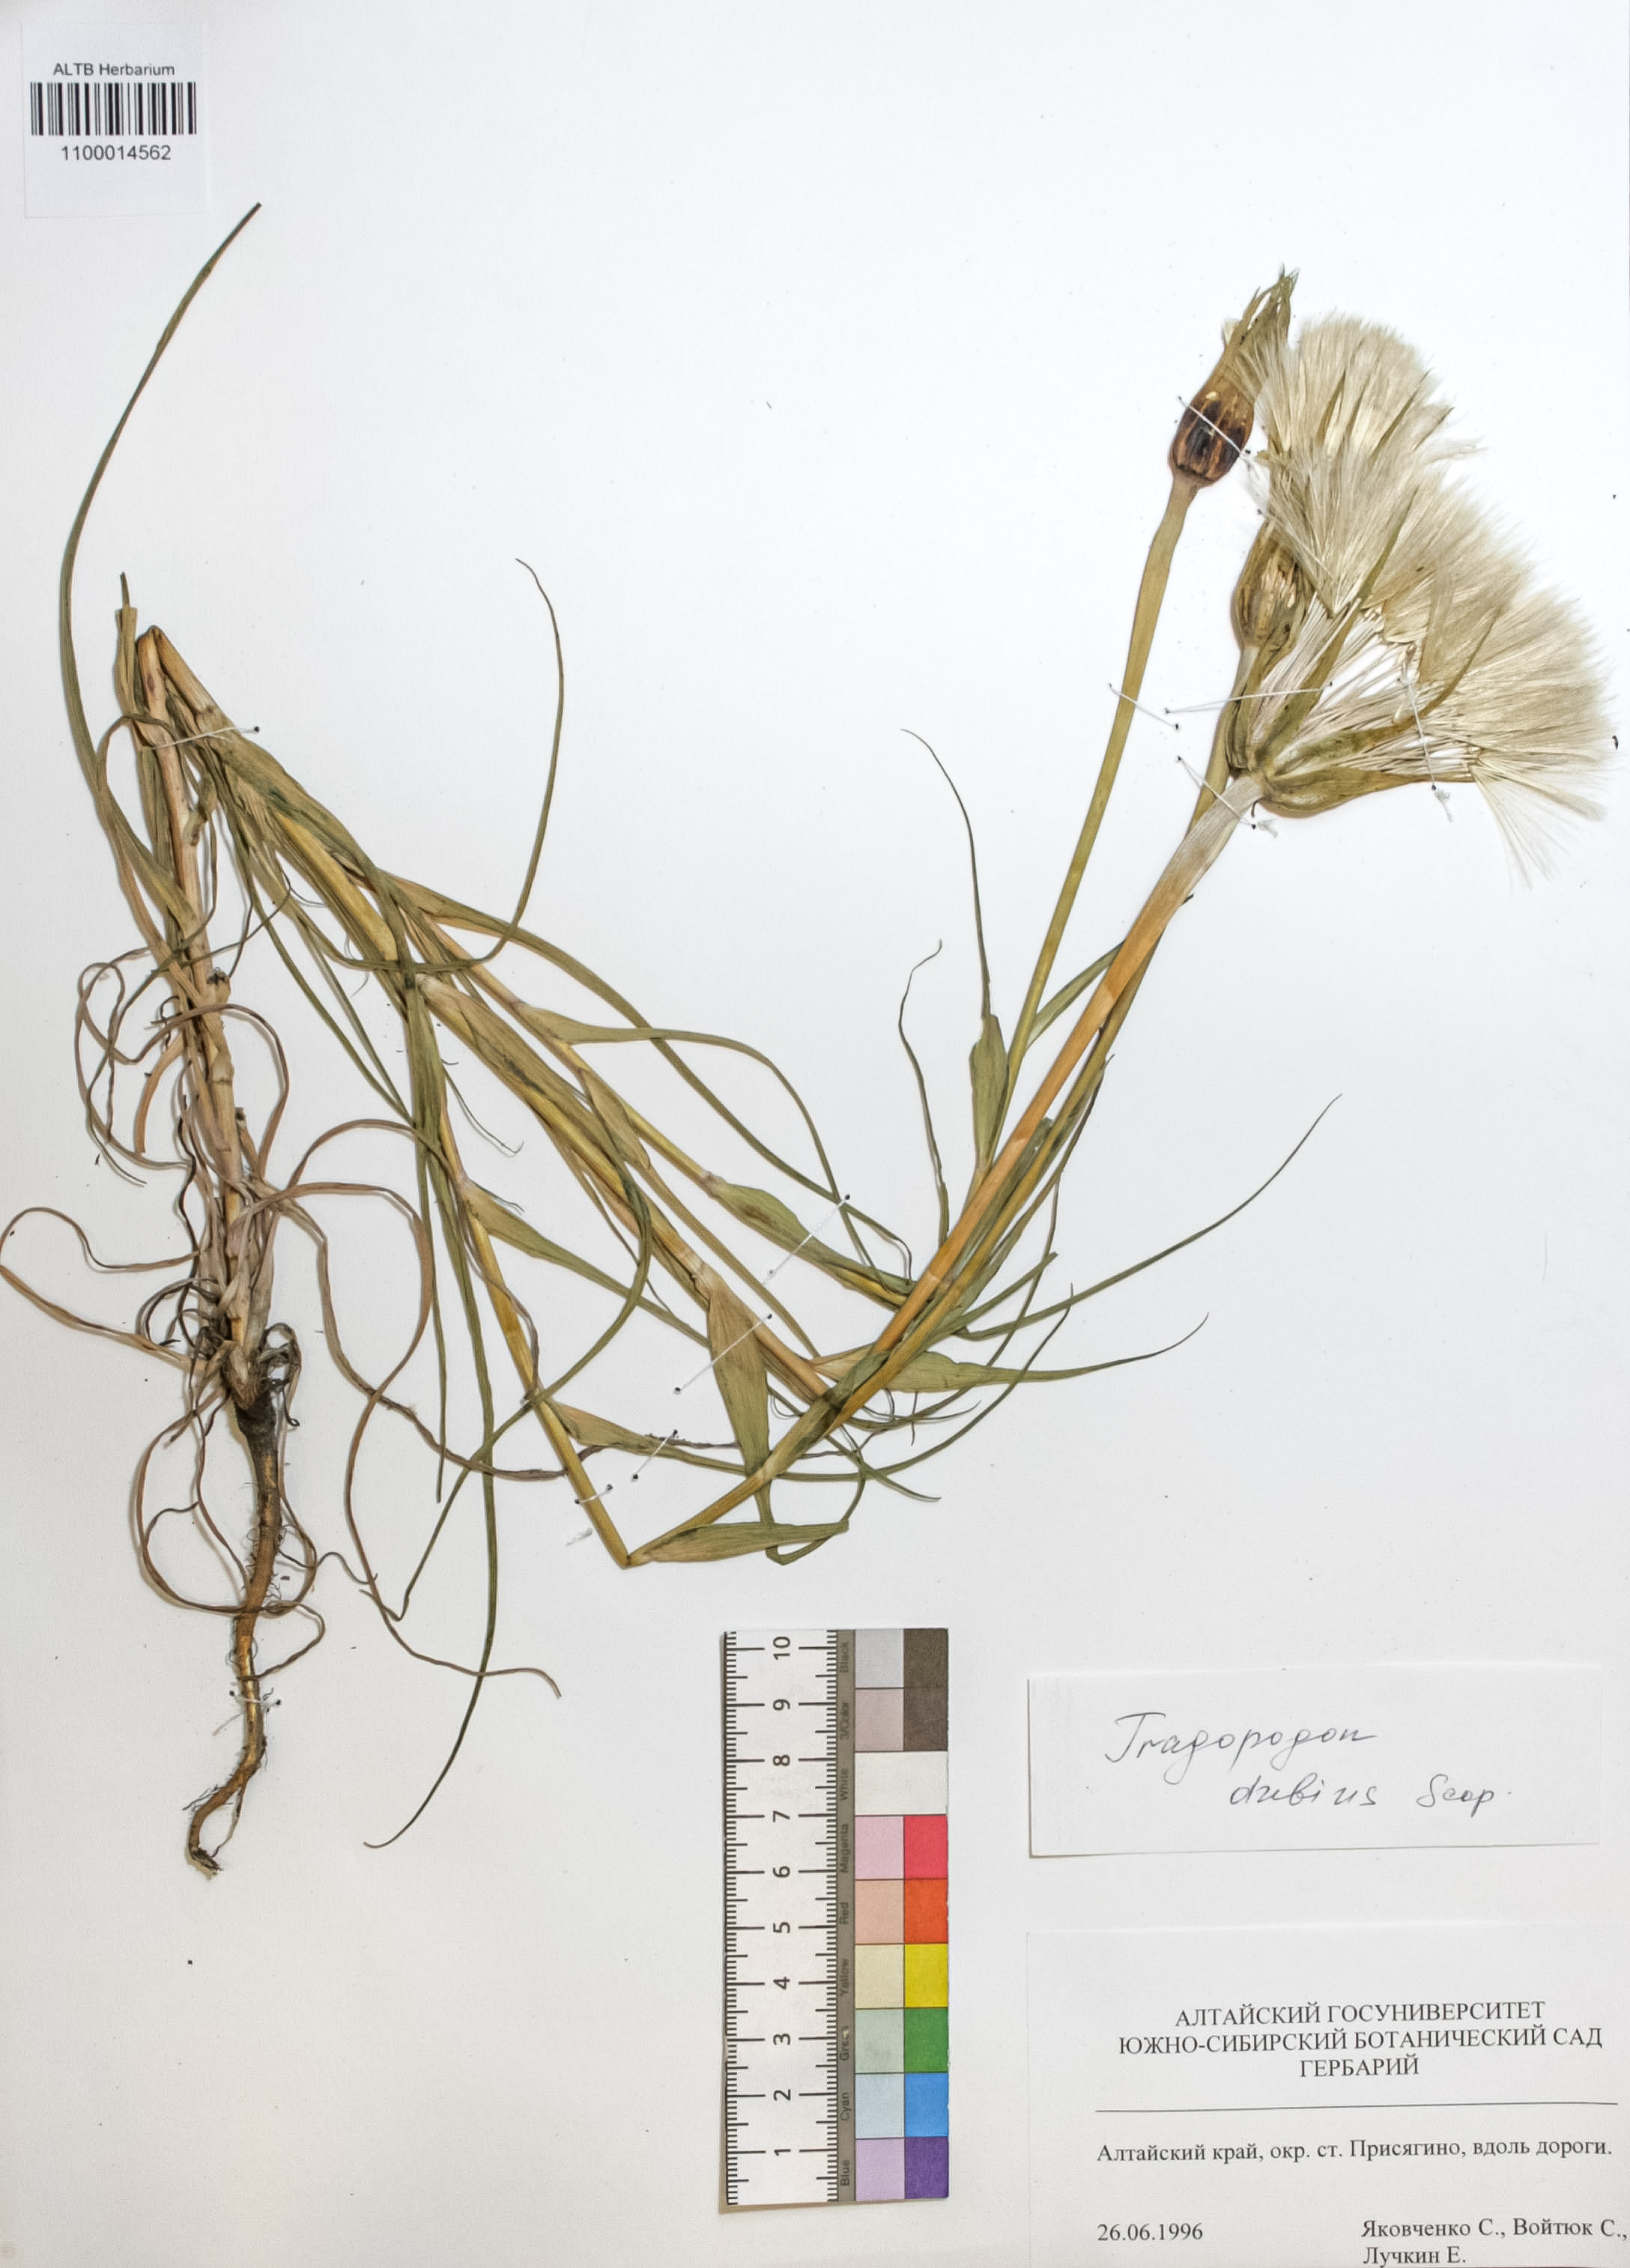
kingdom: Plantae
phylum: Tracheophyta
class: Magnoliopsida
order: Asterales
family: Asteraceae
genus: Tragopogon
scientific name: Tragopogon dubius
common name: Yellow salsify
